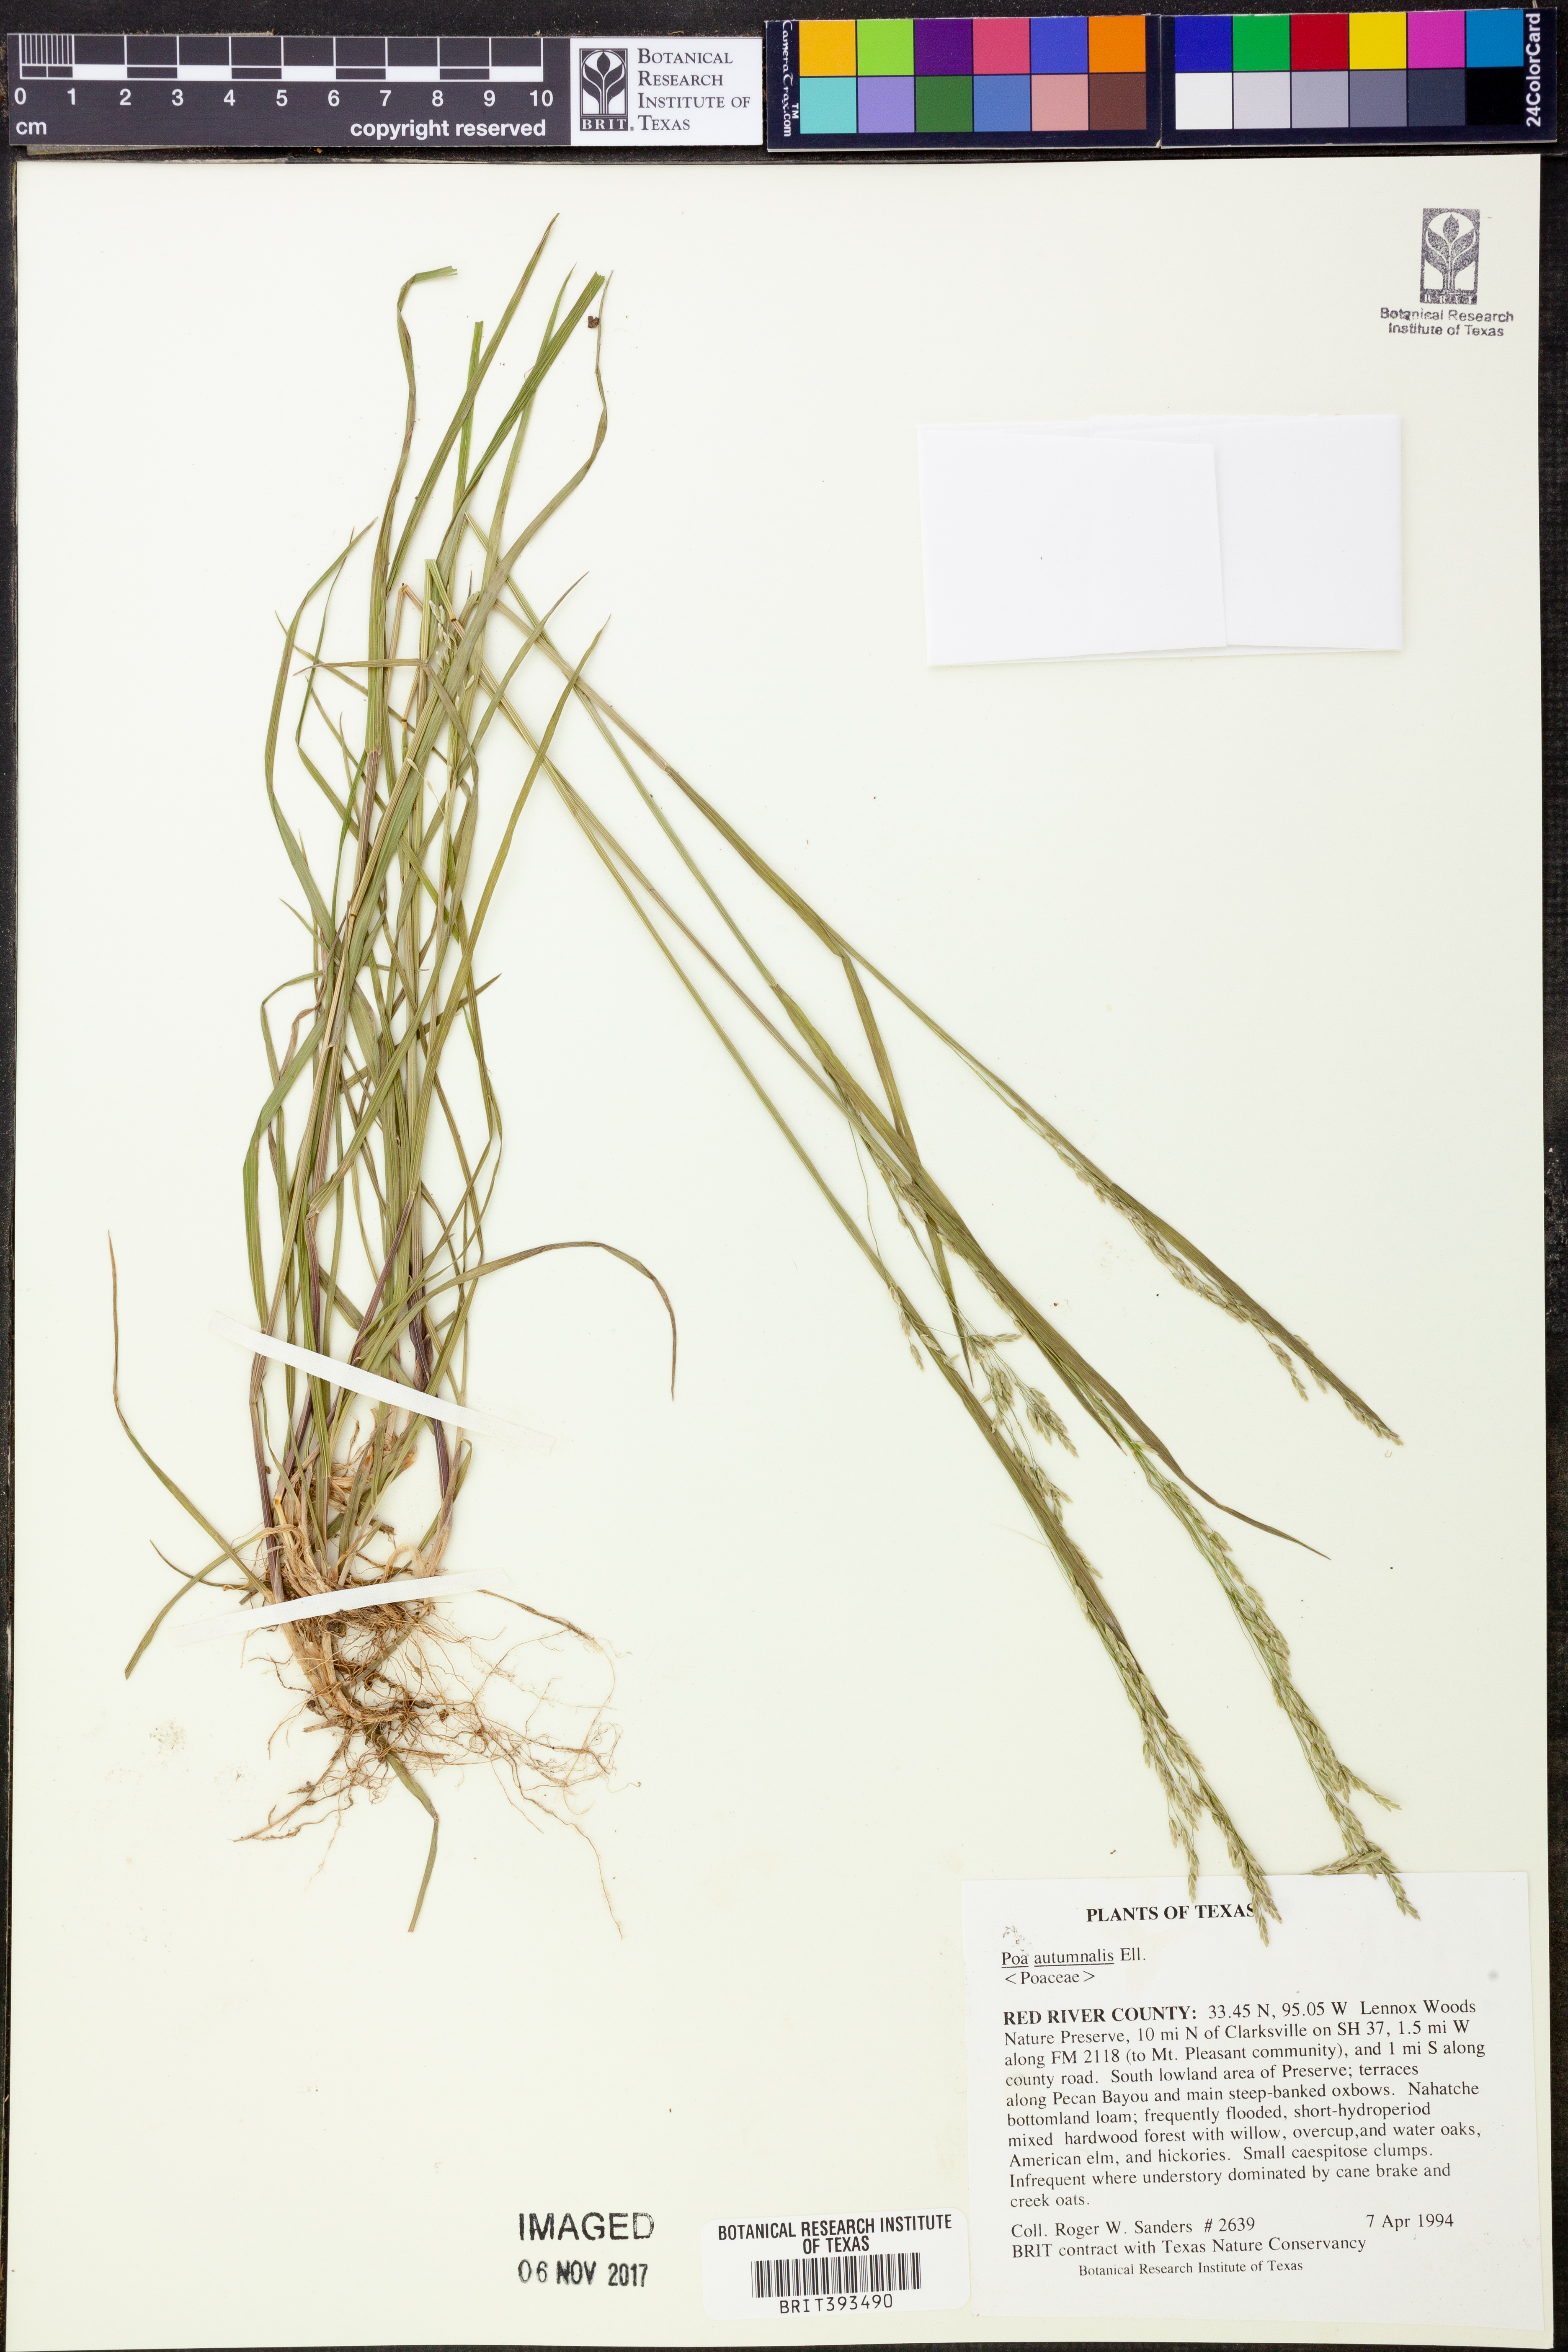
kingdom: Plantae
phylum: Tracheophyta
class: Liliopsida
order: Poales
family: Poaceae
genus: Poa
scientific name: Poa autumnalis
